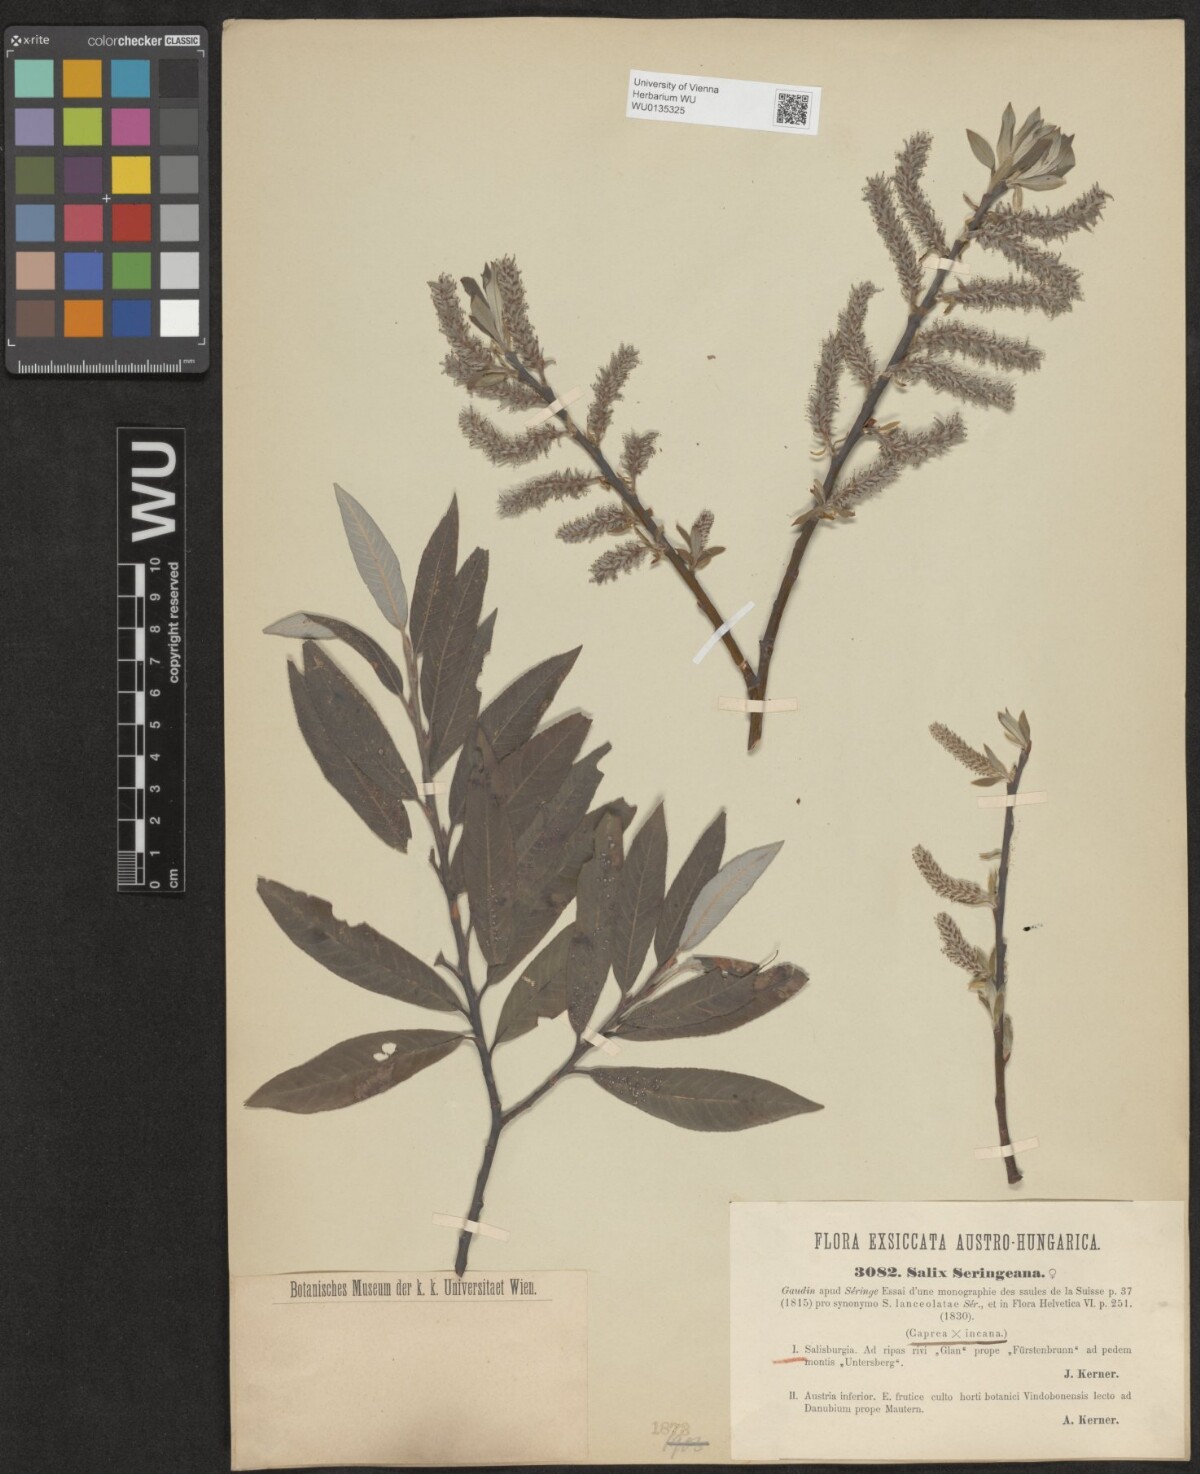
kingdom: Plantae
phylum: Tracheophyta
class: Magnoliopsida
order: Malpighiales
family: Salicaceae
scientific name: Salicaceae
